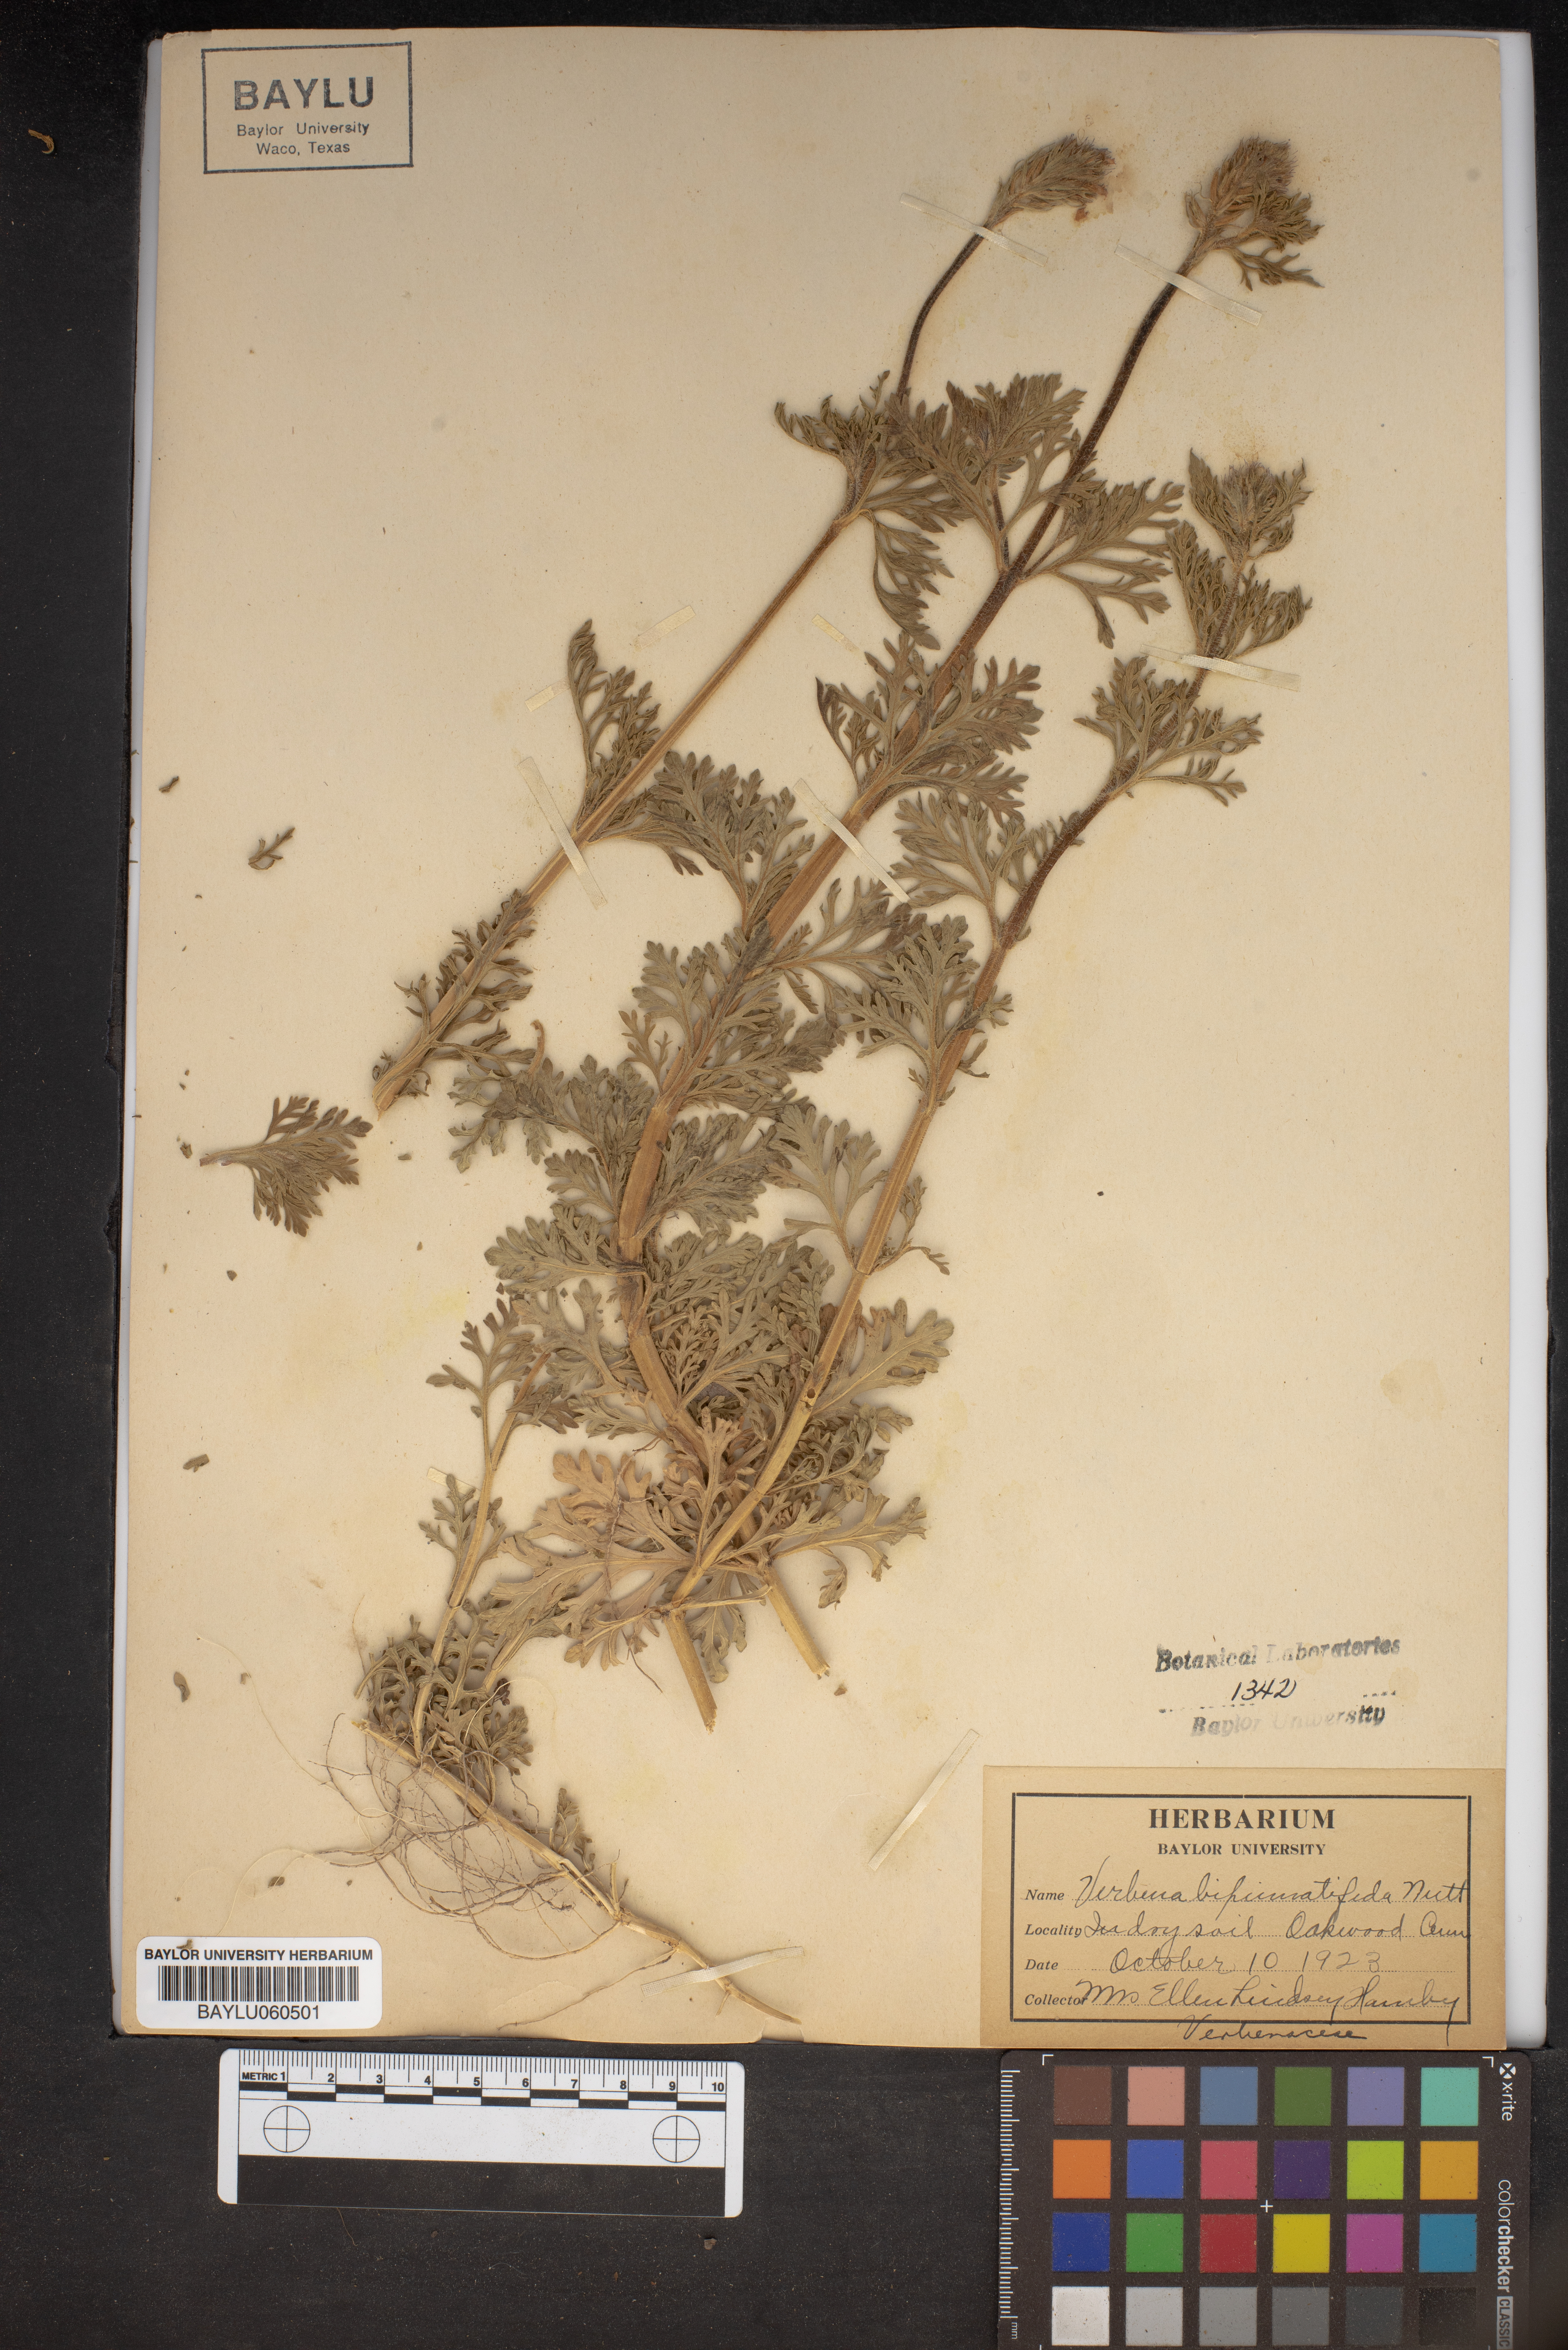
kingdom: Plantae
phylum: Tracheophyta
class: Magnoliopsida
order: Asterales
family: Asteraceae
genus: Verbesina
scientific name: Verbesina bipinnatifida
